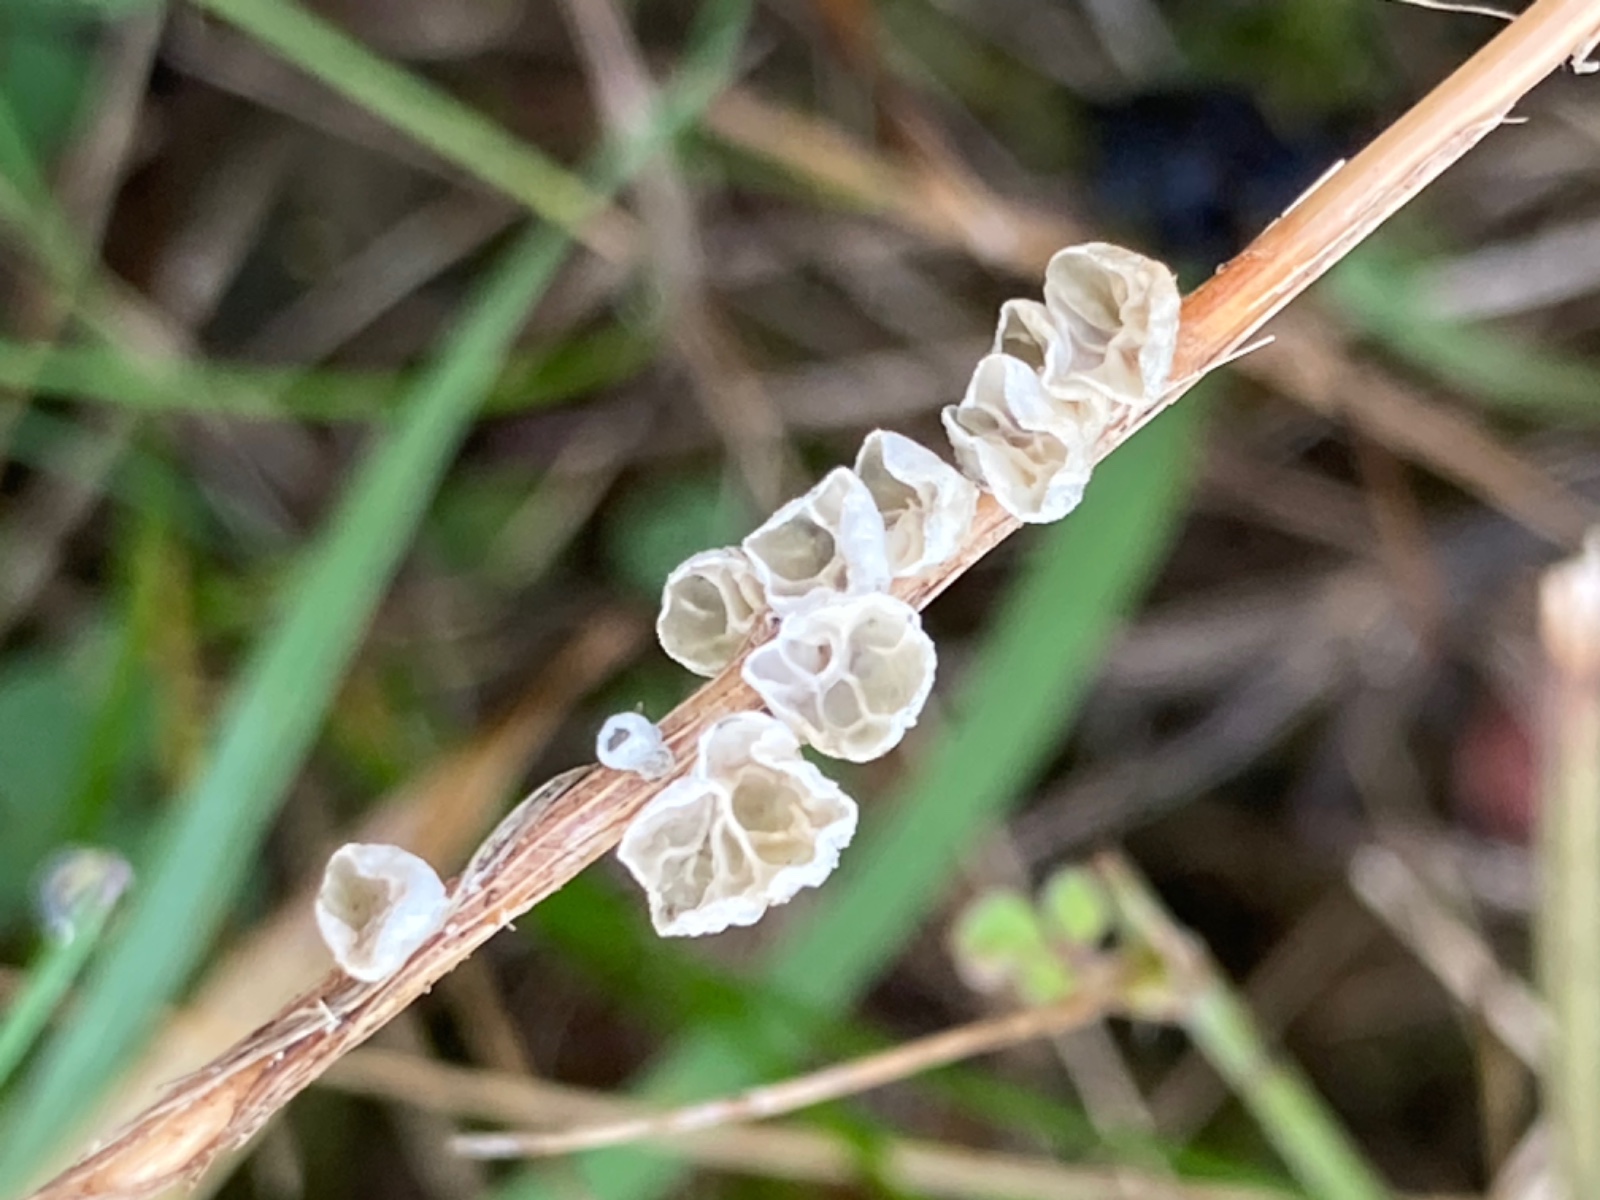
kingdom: Fungi
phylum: Basidiomycota
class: Agaricomycetes
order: Agaricales
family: Marasmiaceae
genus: Campanella
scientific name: Campanella caesia
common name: bruskøre
